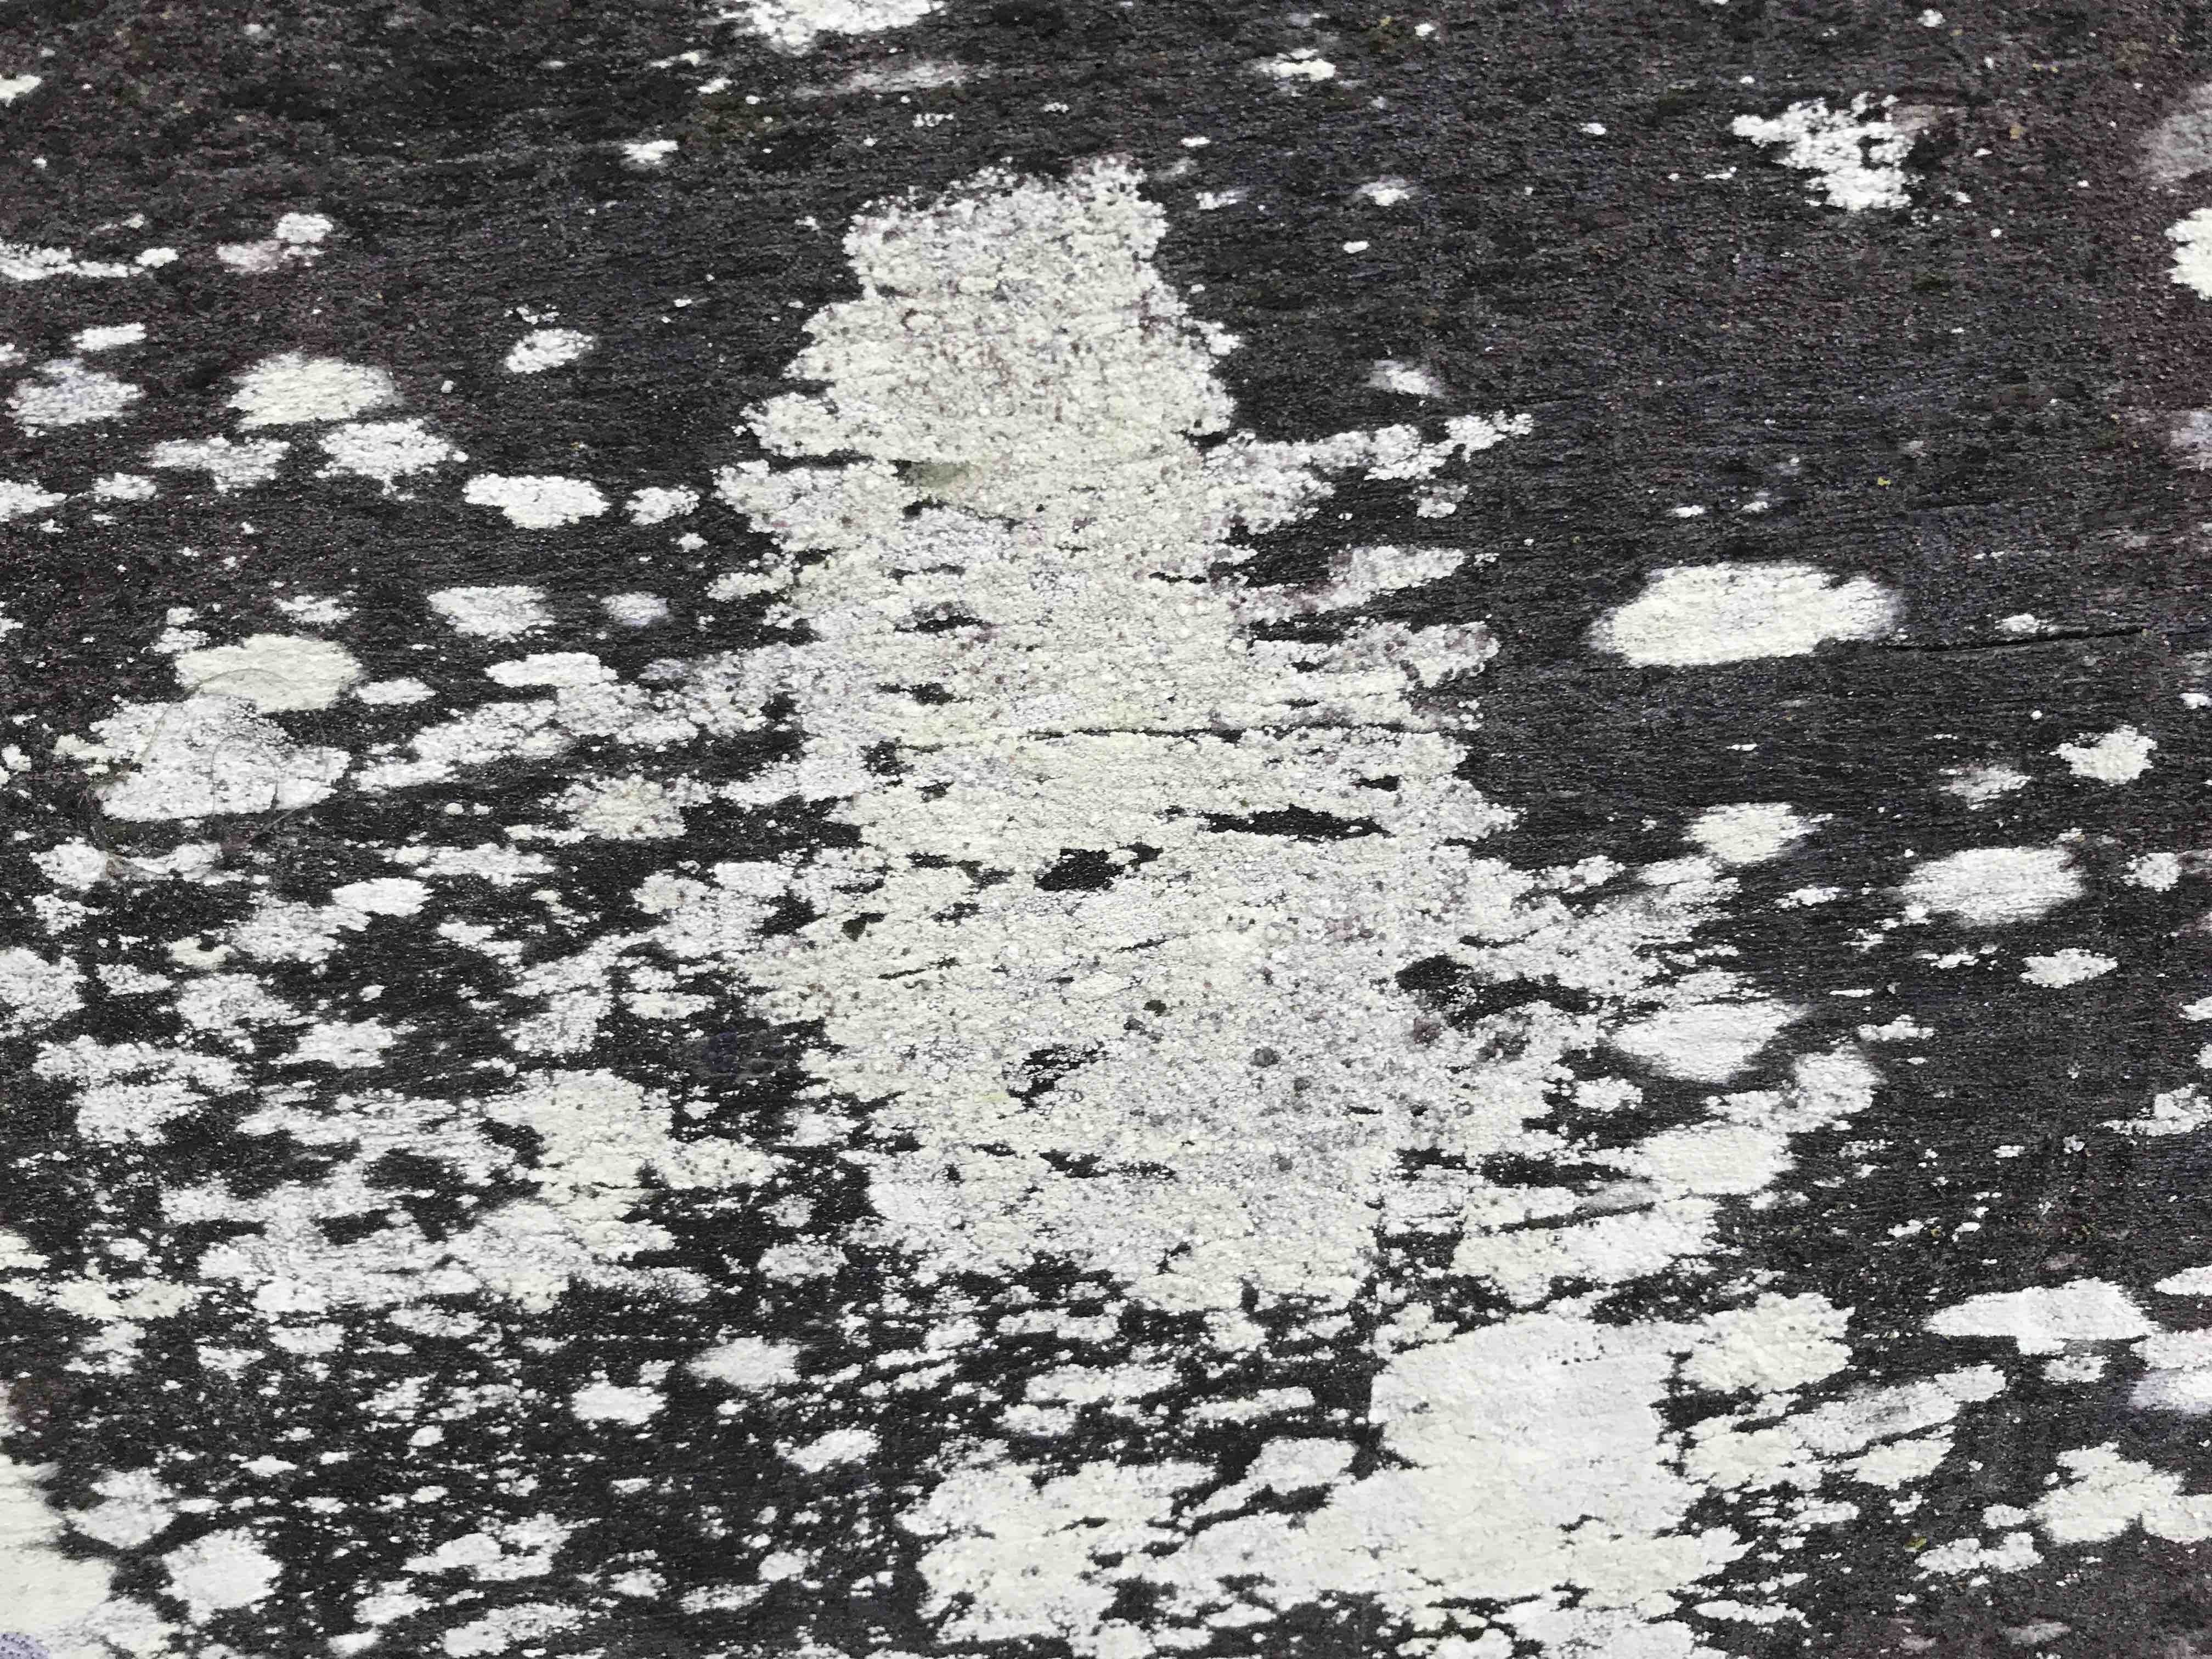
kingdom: Fungi
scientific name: Fungi
